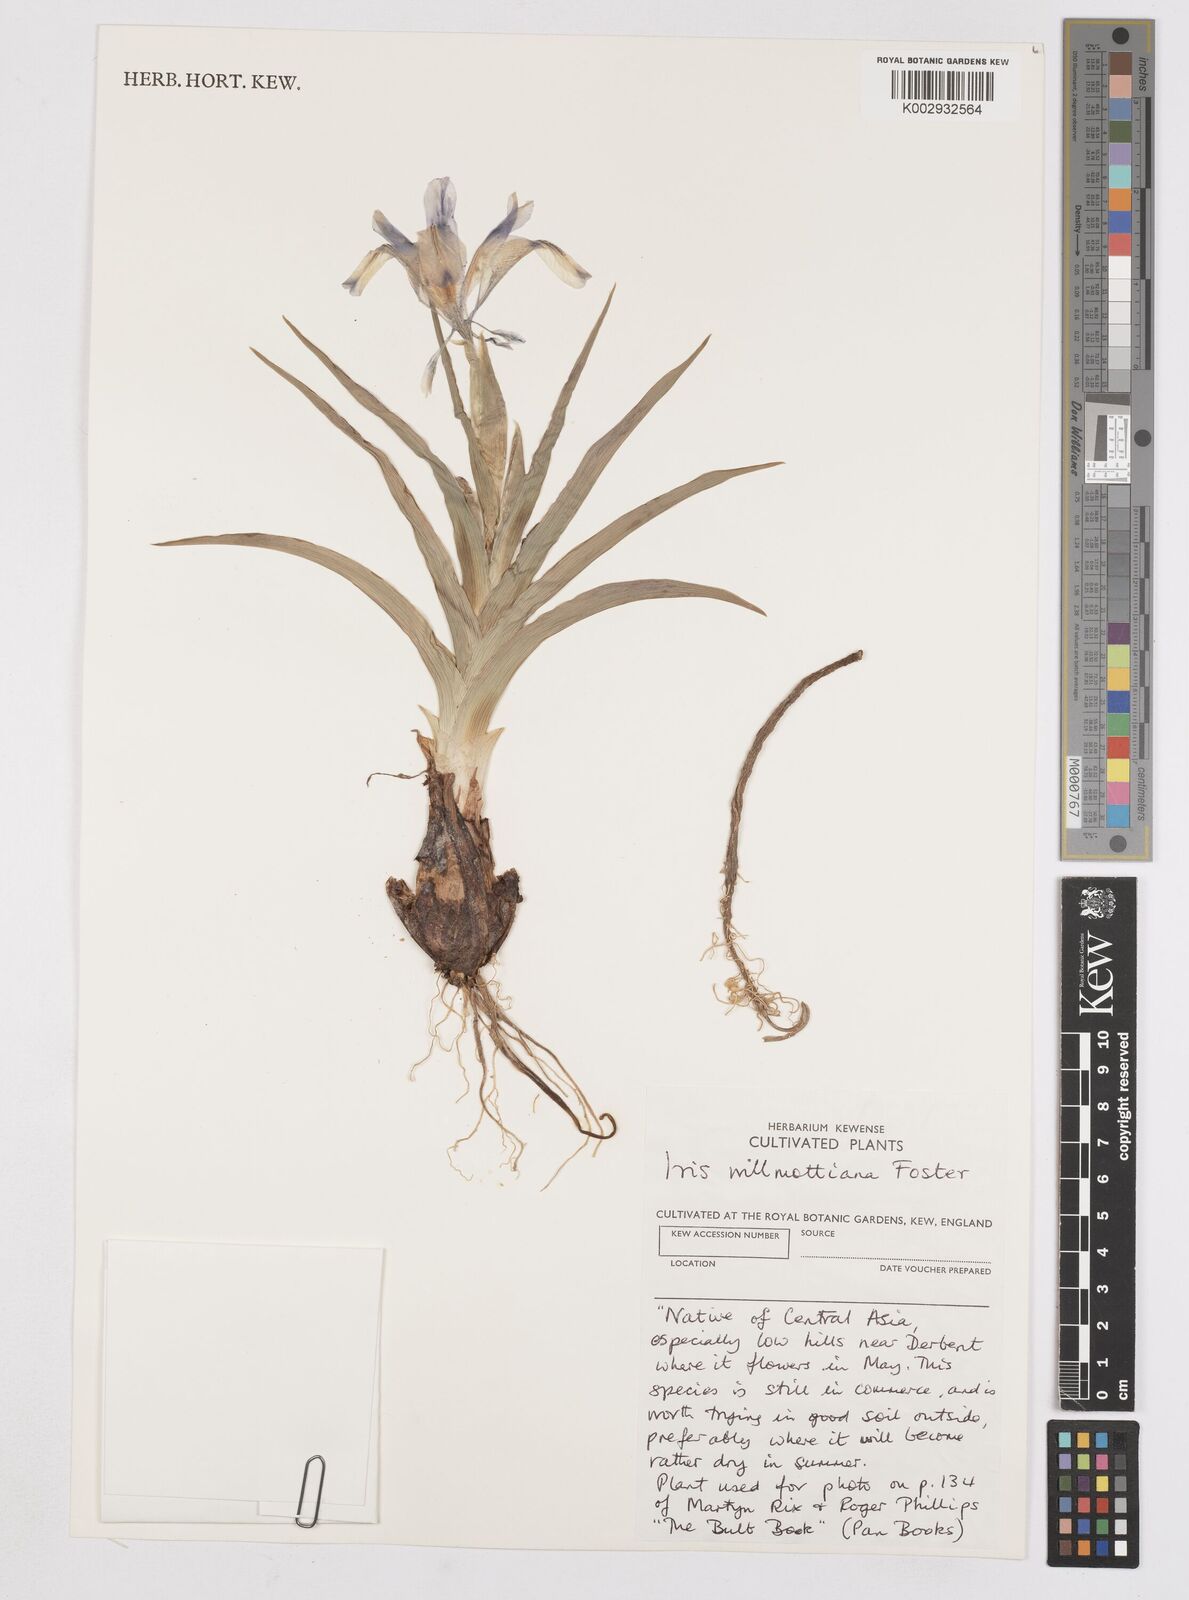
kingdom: Plantae
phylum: Tracheophyta
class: Liliopsida
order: Asparagales
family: Iridaceae
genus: Iris
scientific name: Iris orchioides
